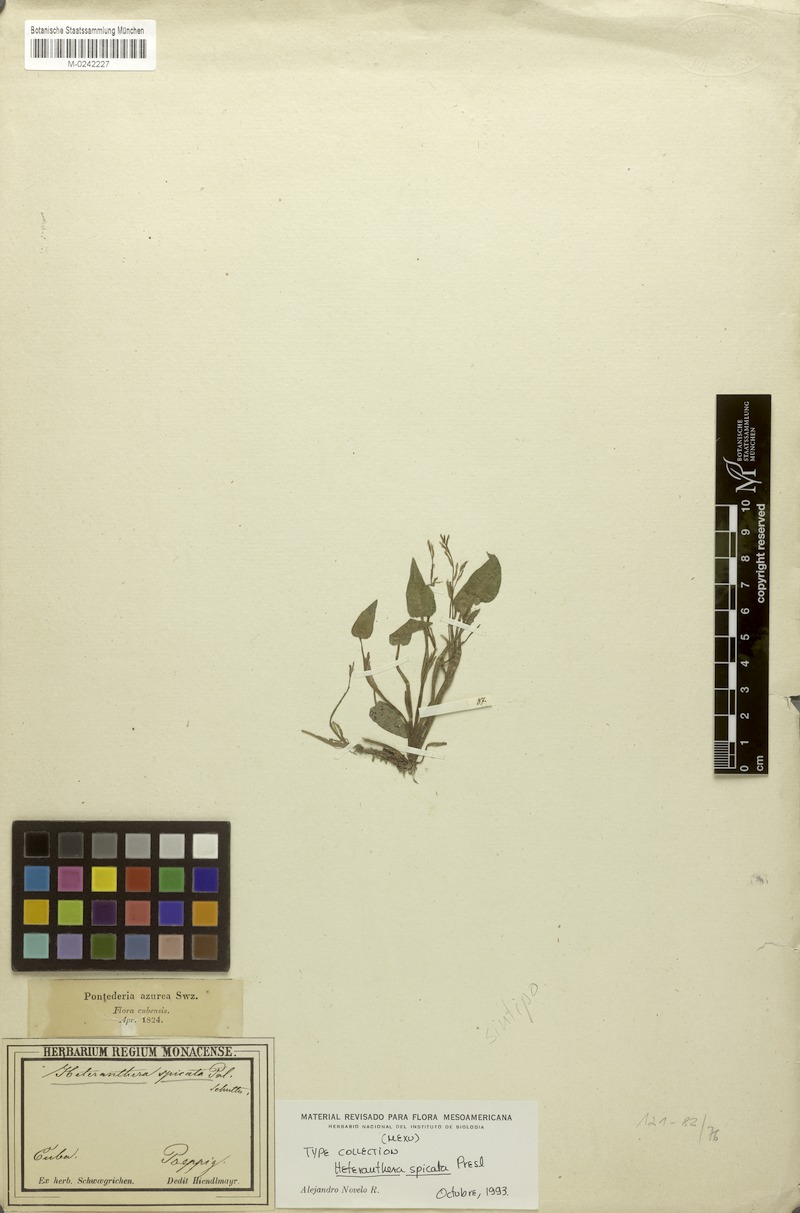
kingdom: Plantae
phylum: Tracheophyta
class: Liliopsida
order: Commelinales
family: Pontederiaceae
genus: Heteranthera
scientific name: Heteranthera spicata
